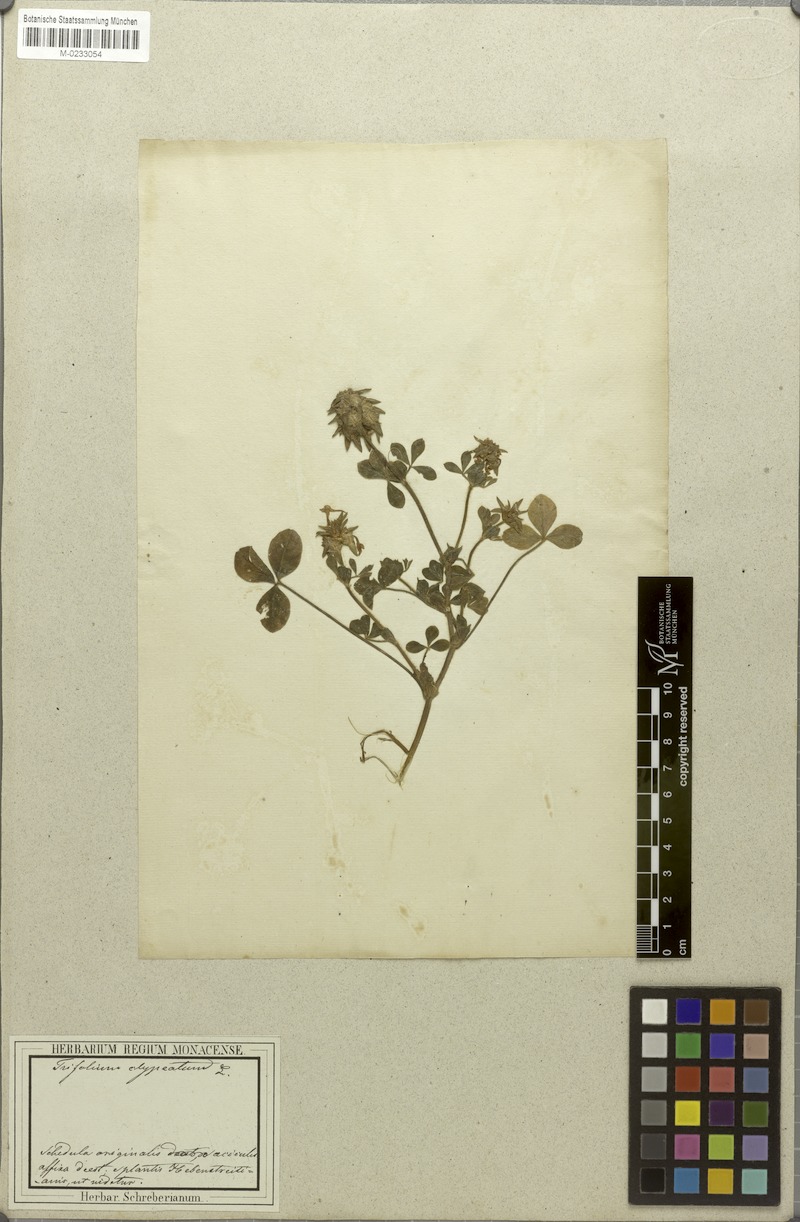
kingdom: Plantae
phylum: Tracheophyta
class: Magnoliopsida
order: Fabales
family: Fabaceae
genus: Trifolium
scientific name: Trifolium clypeatum
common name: Shield clover
